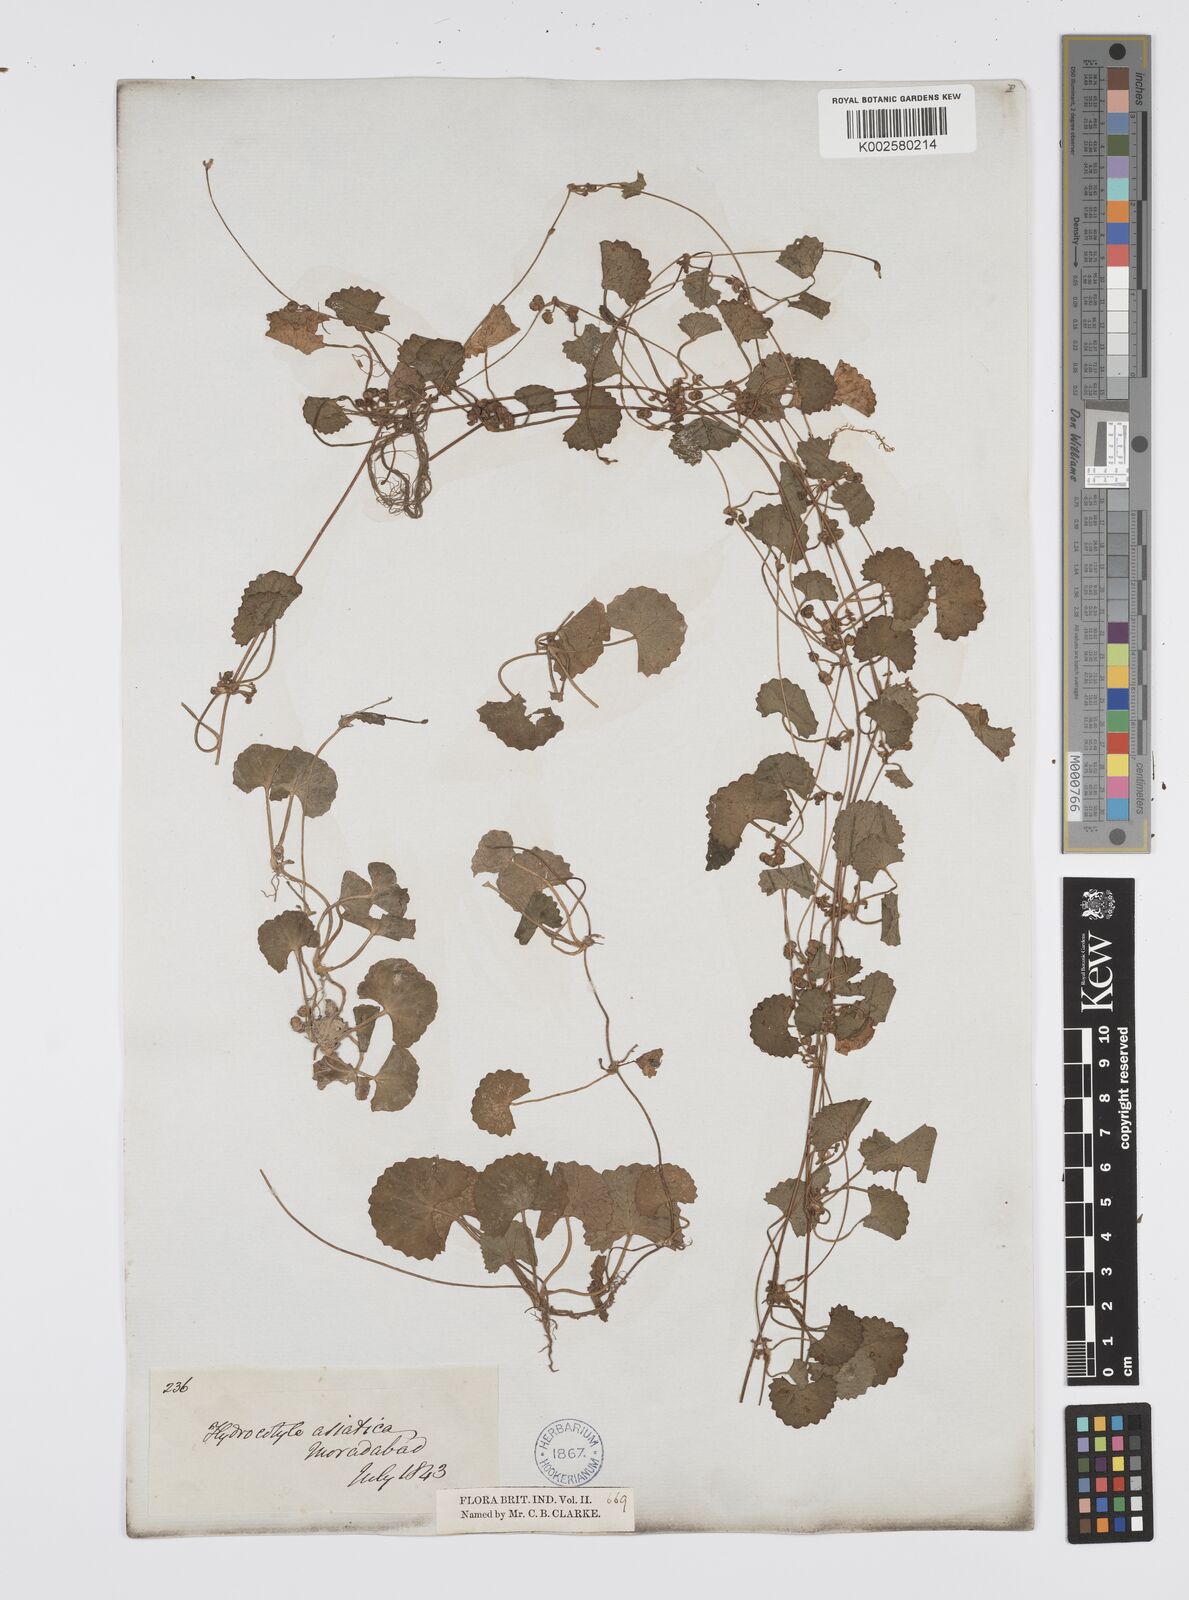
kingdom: Plantae
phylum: Tracheophyta
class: Magnoliopsida
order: Apiales
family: Apiaceae
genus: Centella
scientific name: Centella asiatica
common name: Spadeleaf
